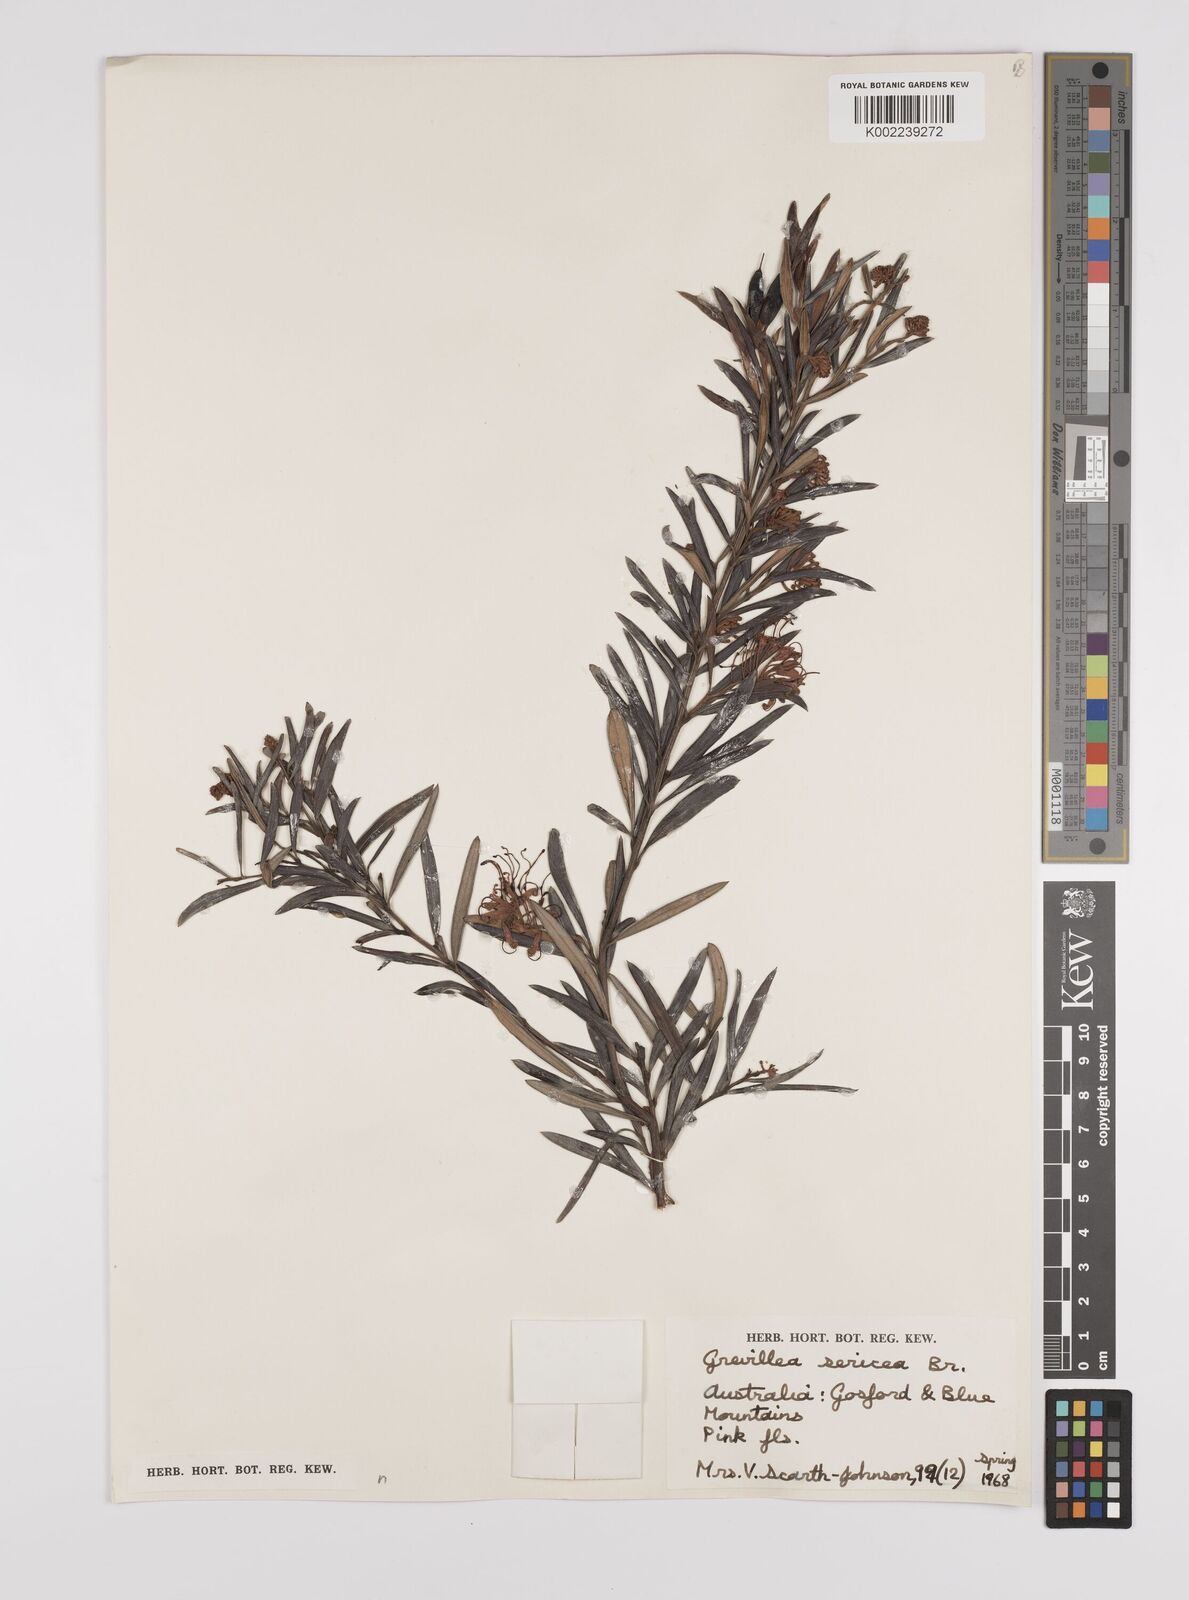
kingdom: Plantae
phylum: Tracheophyta
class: Magnoliopsida
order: Proteales
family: Proteaceae
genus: Grevillea
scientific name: Grevillea sericea
